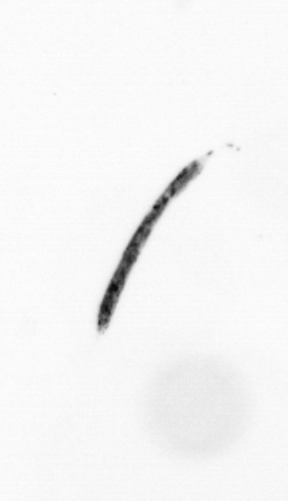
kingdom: Bacteria
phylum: Cyanobacteria
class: Cyanobacteriia
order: Cyanobacteriales
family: Microcoleaceae
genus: Trichodesmium
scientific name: Trichodesmium
